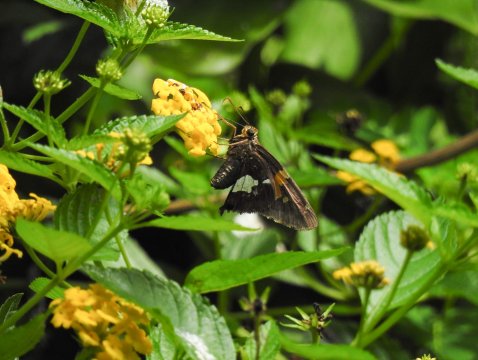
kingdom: Animalia
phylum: Arthropoda
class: Insecta
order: Lepidoptera
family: Hesperiidae
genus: Epargyreus
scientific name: Epargyreus clarus
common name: Silver-spotted Skipper
